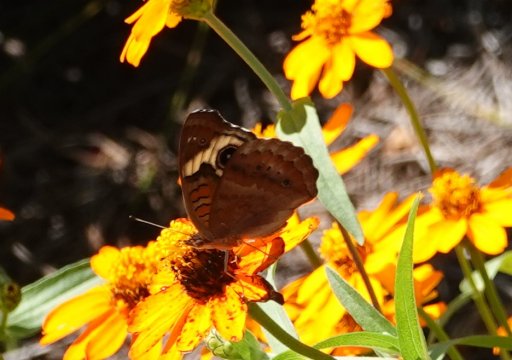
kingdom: Animalia
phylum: Arthropoda
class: Insecta
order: Lepidoptera
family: Nymphalidae
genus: Junonia
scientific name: Junonia coenia
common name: Common Buckeye
